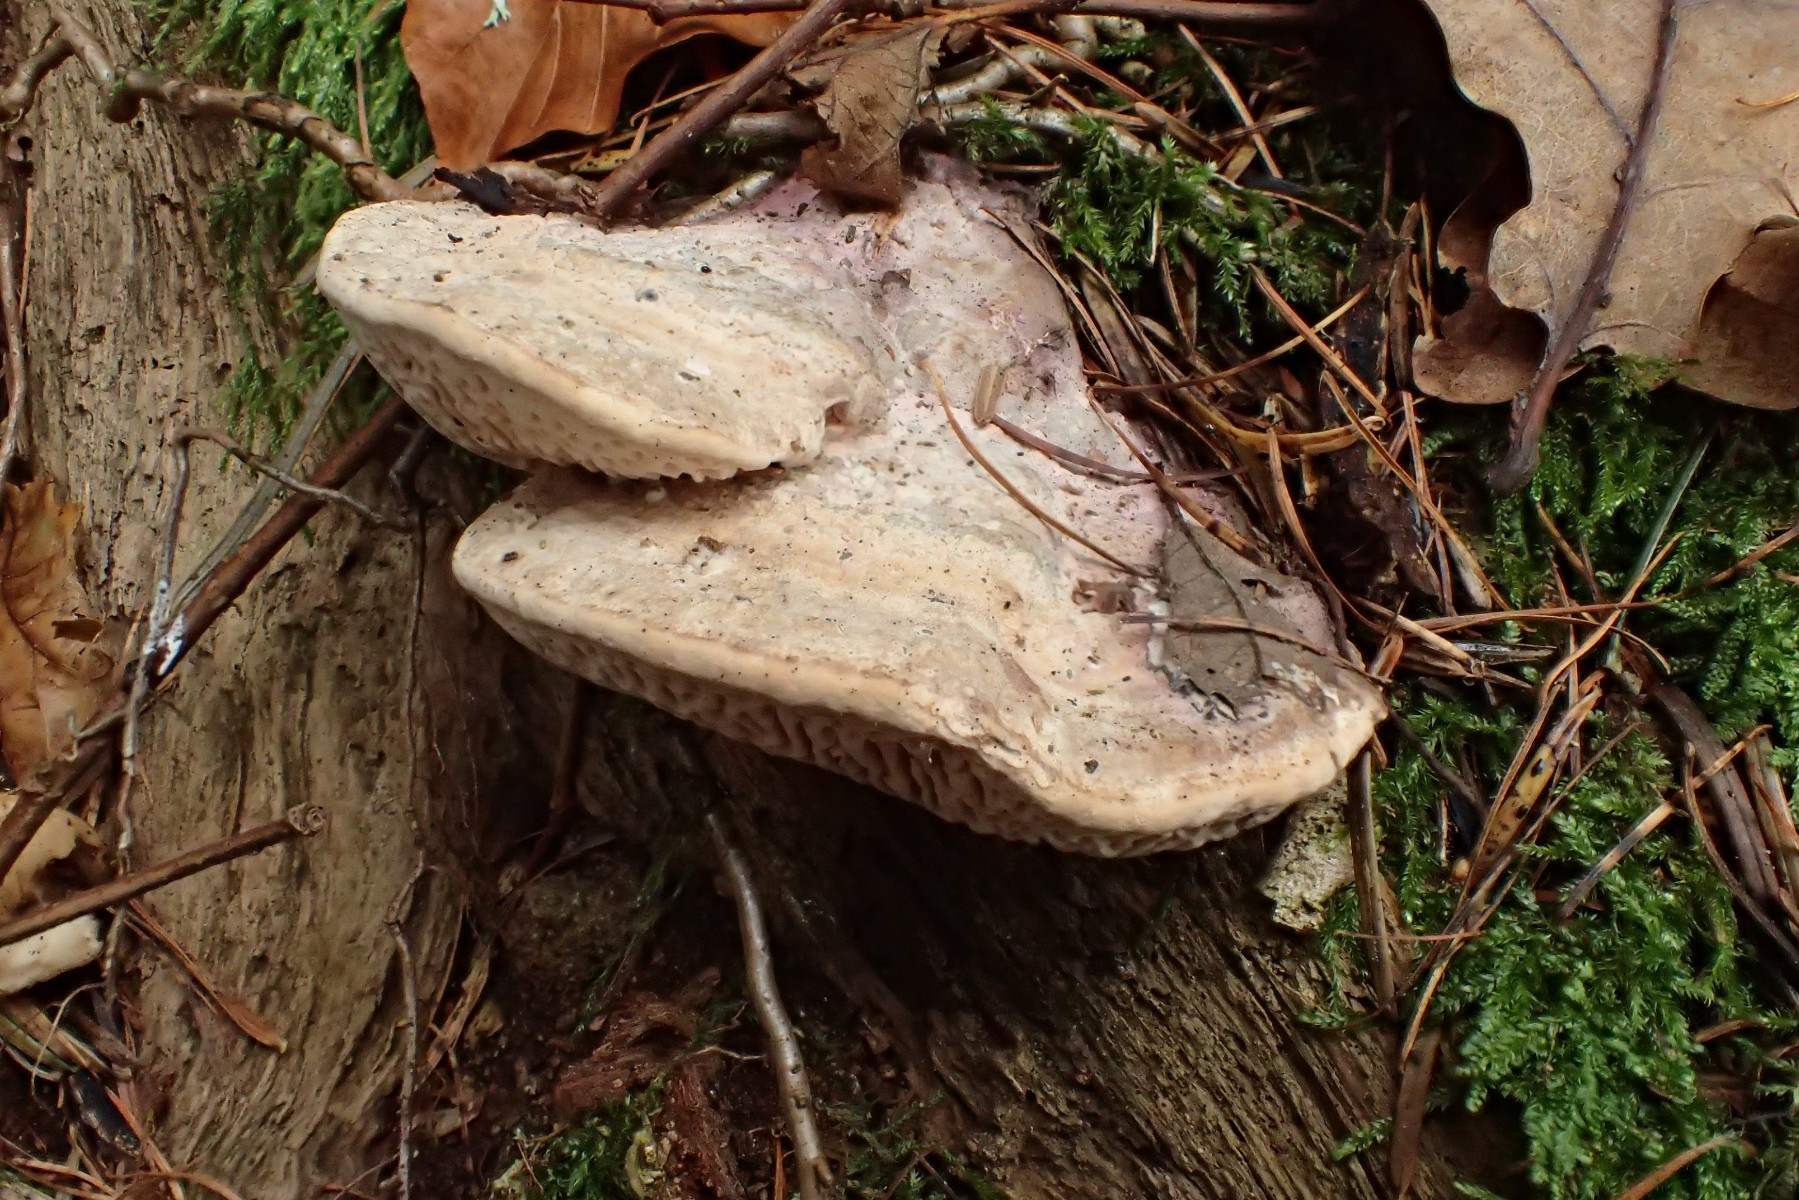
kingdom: Fungi
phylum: Basidiomycota
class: Agaricomycetes
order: Polyporales
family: Fomitopsidaceae
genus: Daedalea
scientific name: Daedalea quercina
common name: ege-labyrintsvamp
